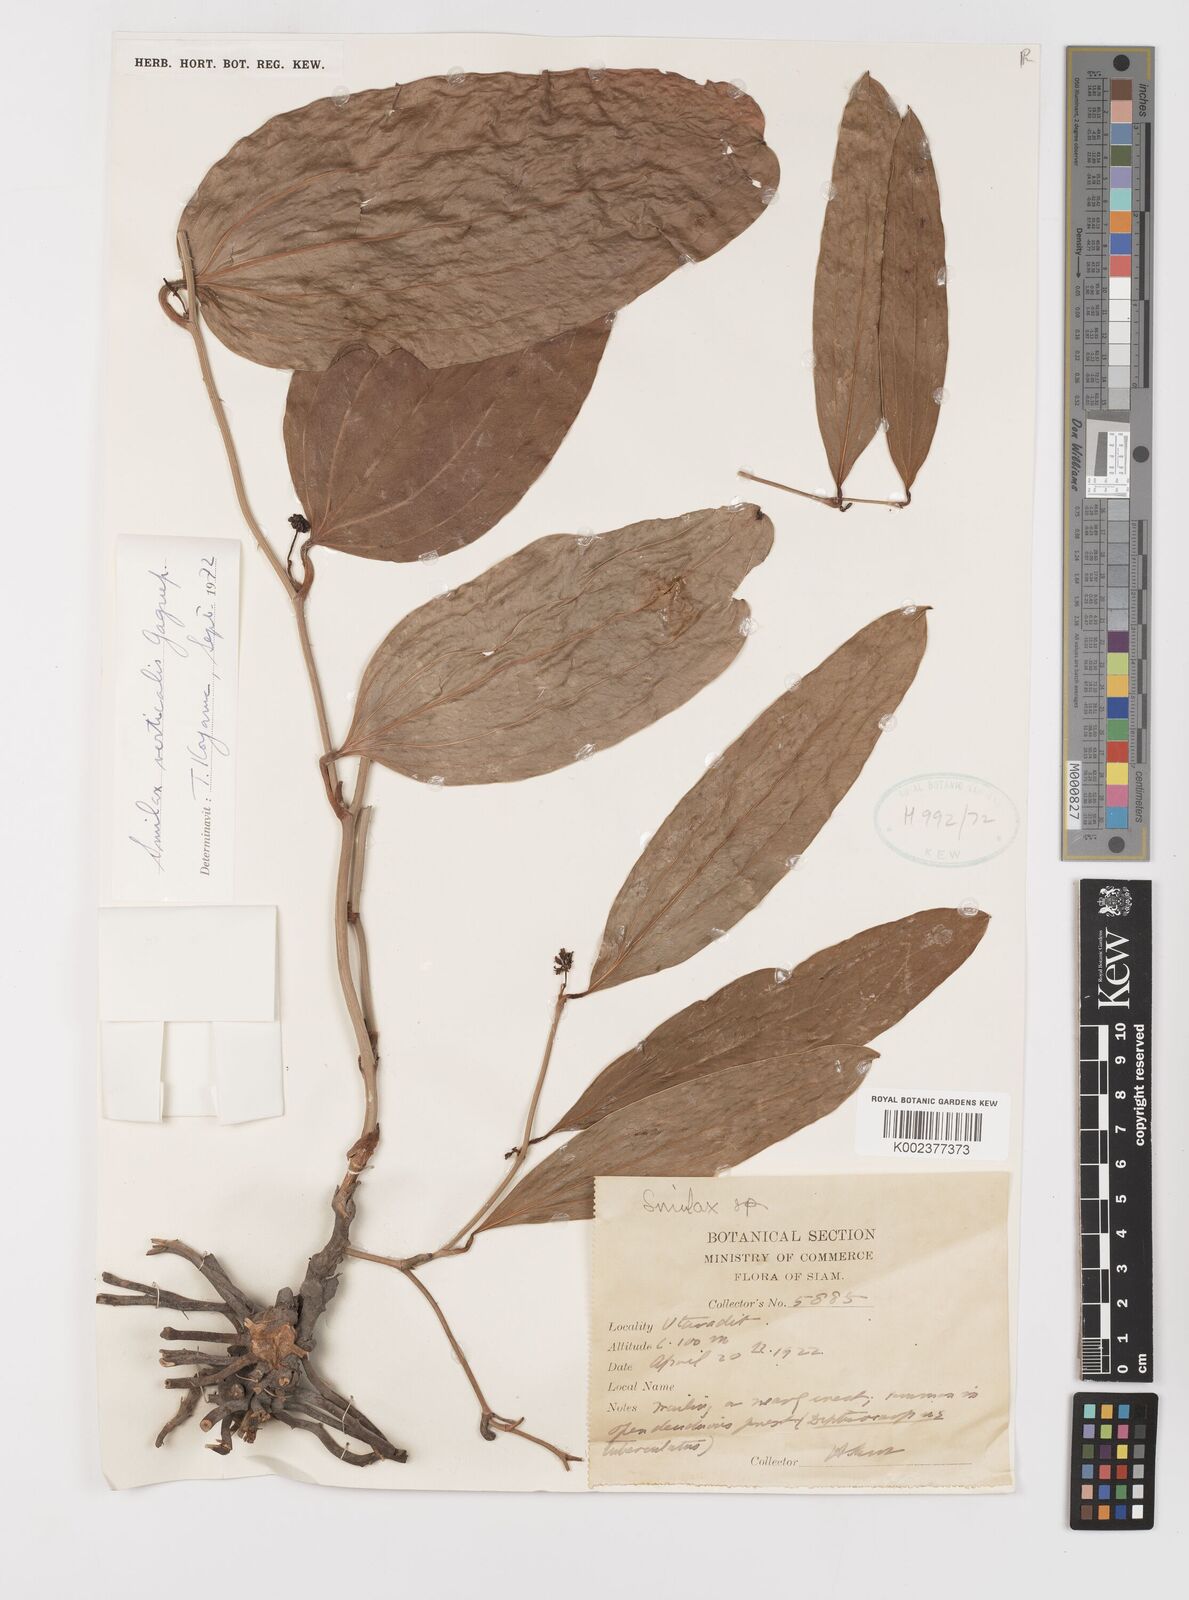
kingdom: Plantae
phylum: Tracheophyta
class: Liliopsida
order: Liliales
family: Smilacaceae
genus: Smilax
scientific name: Smilax verticalis
